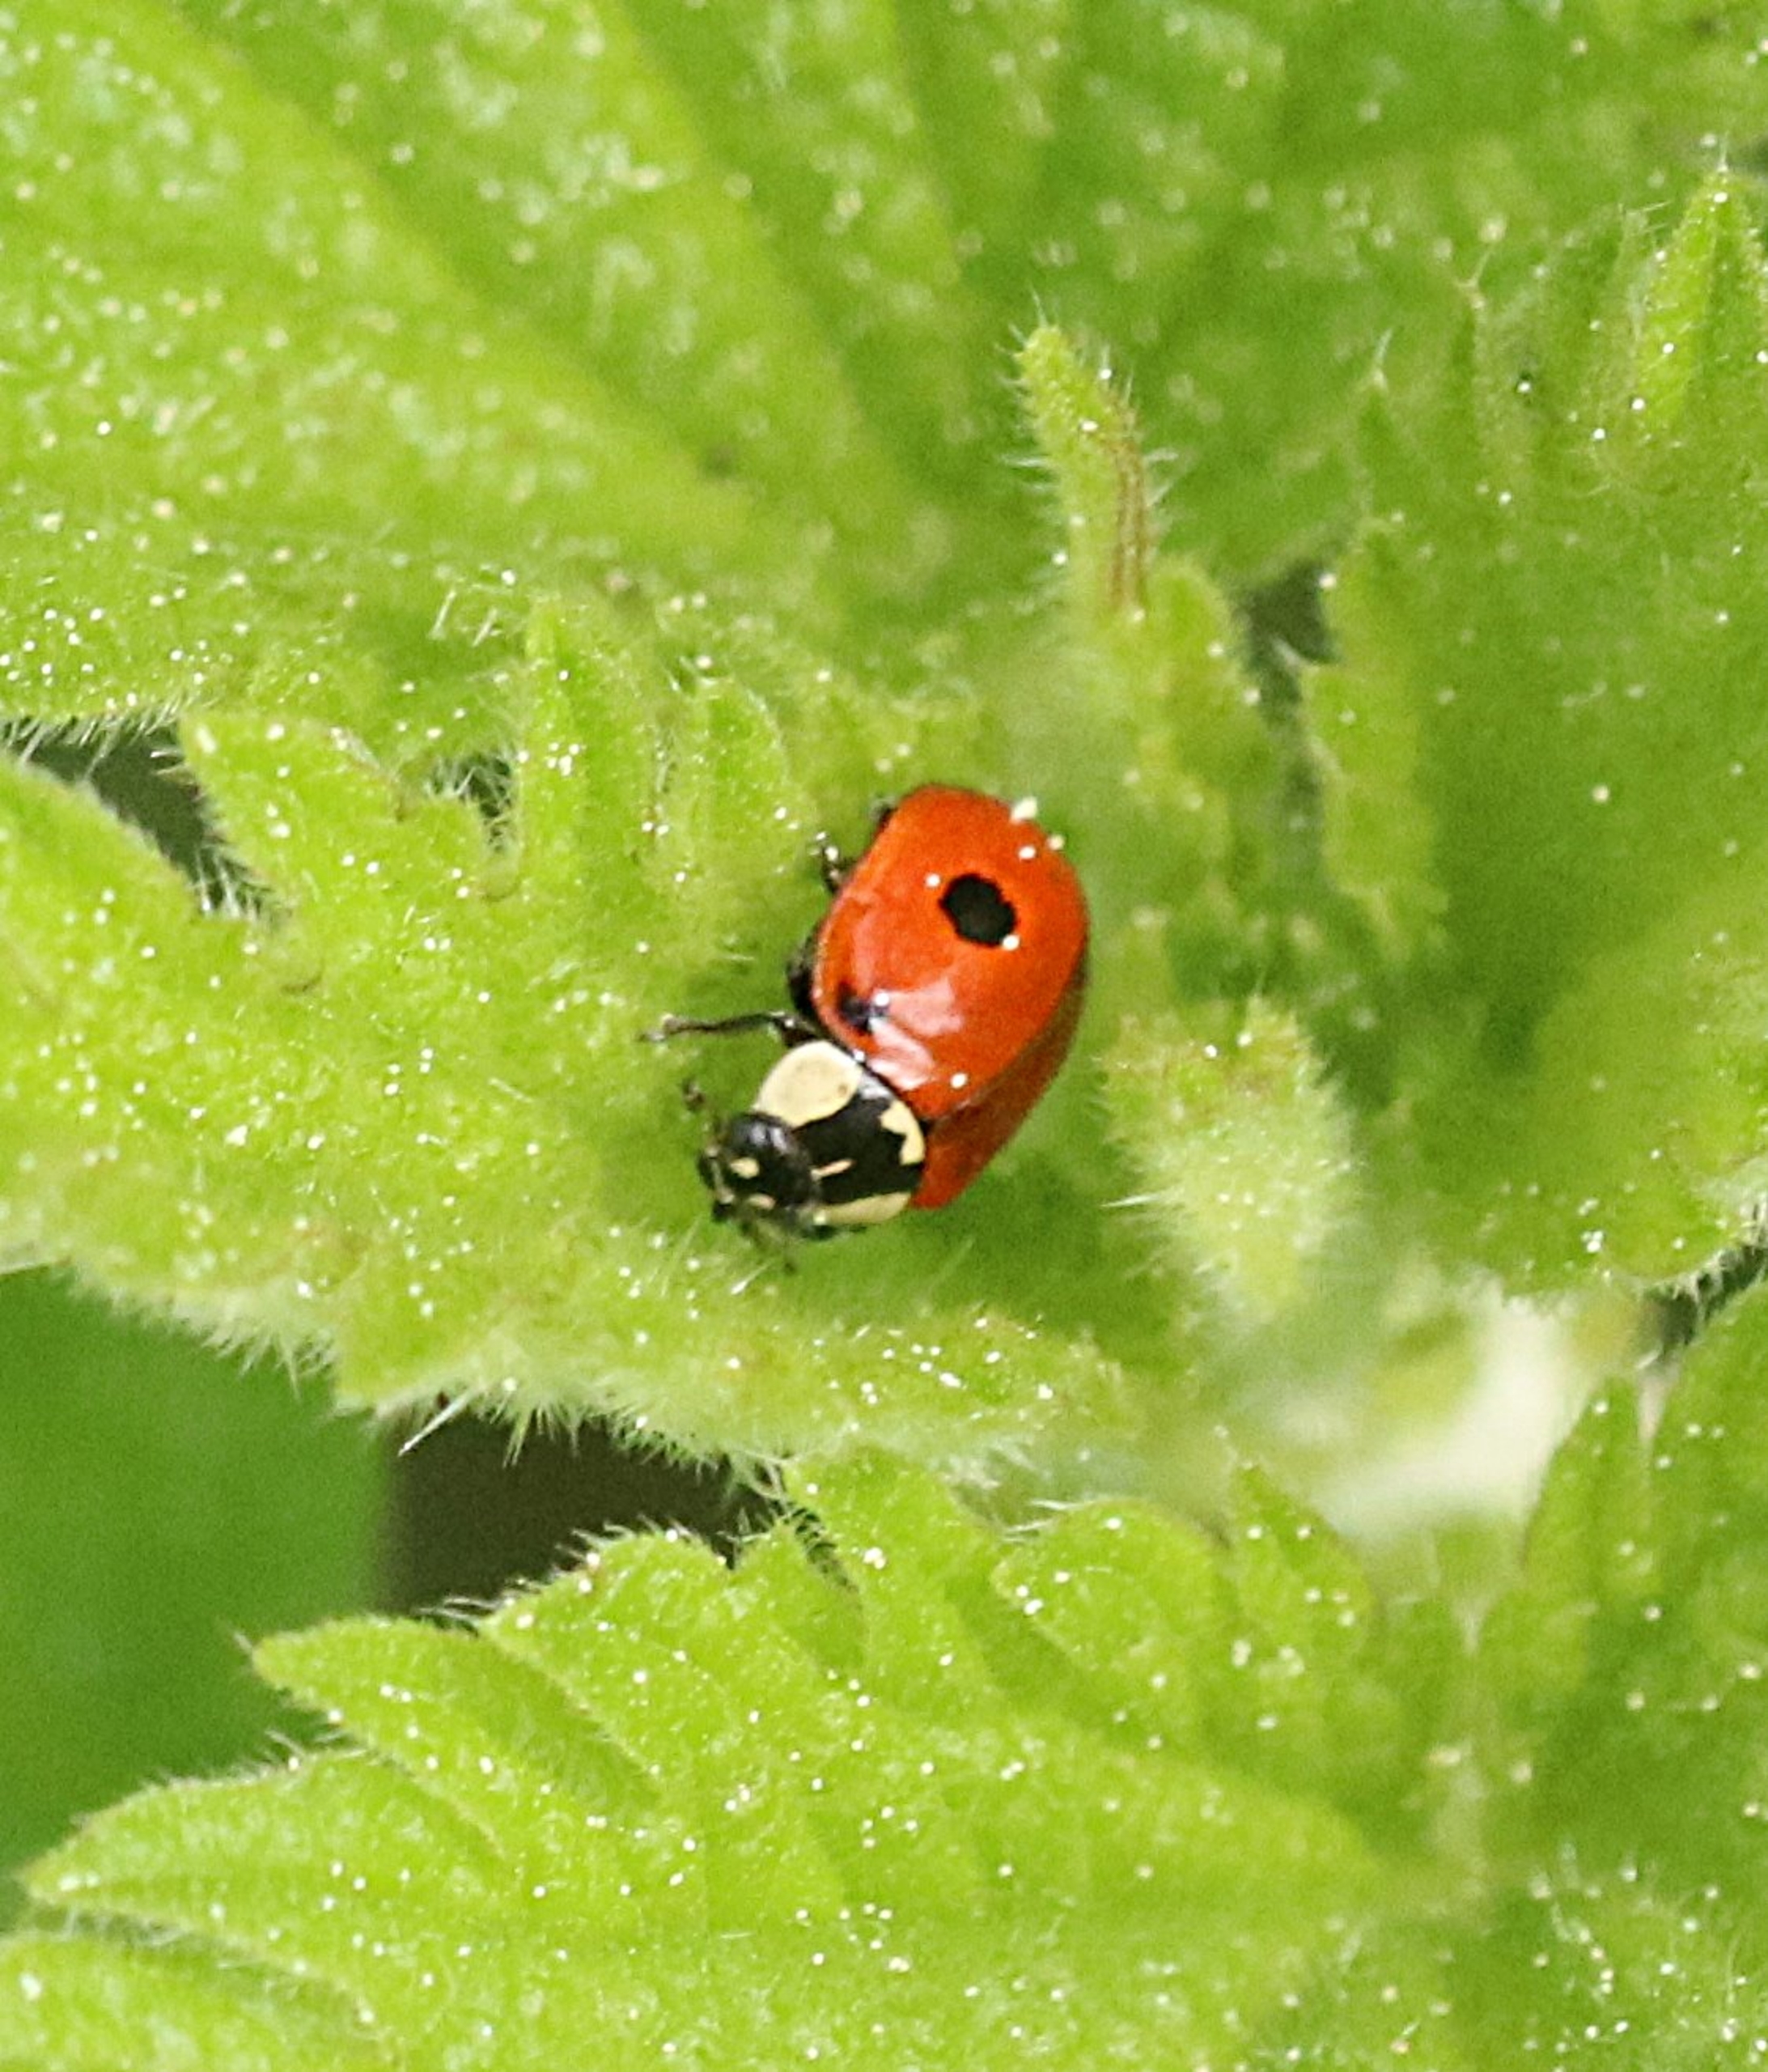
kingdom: Animalia
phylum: Arthropoda
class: Insecta
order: Coleoptera
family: Coccinellidae
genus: Adalia
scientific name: Adalia bipunctata
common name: Toplettet mariehøne
